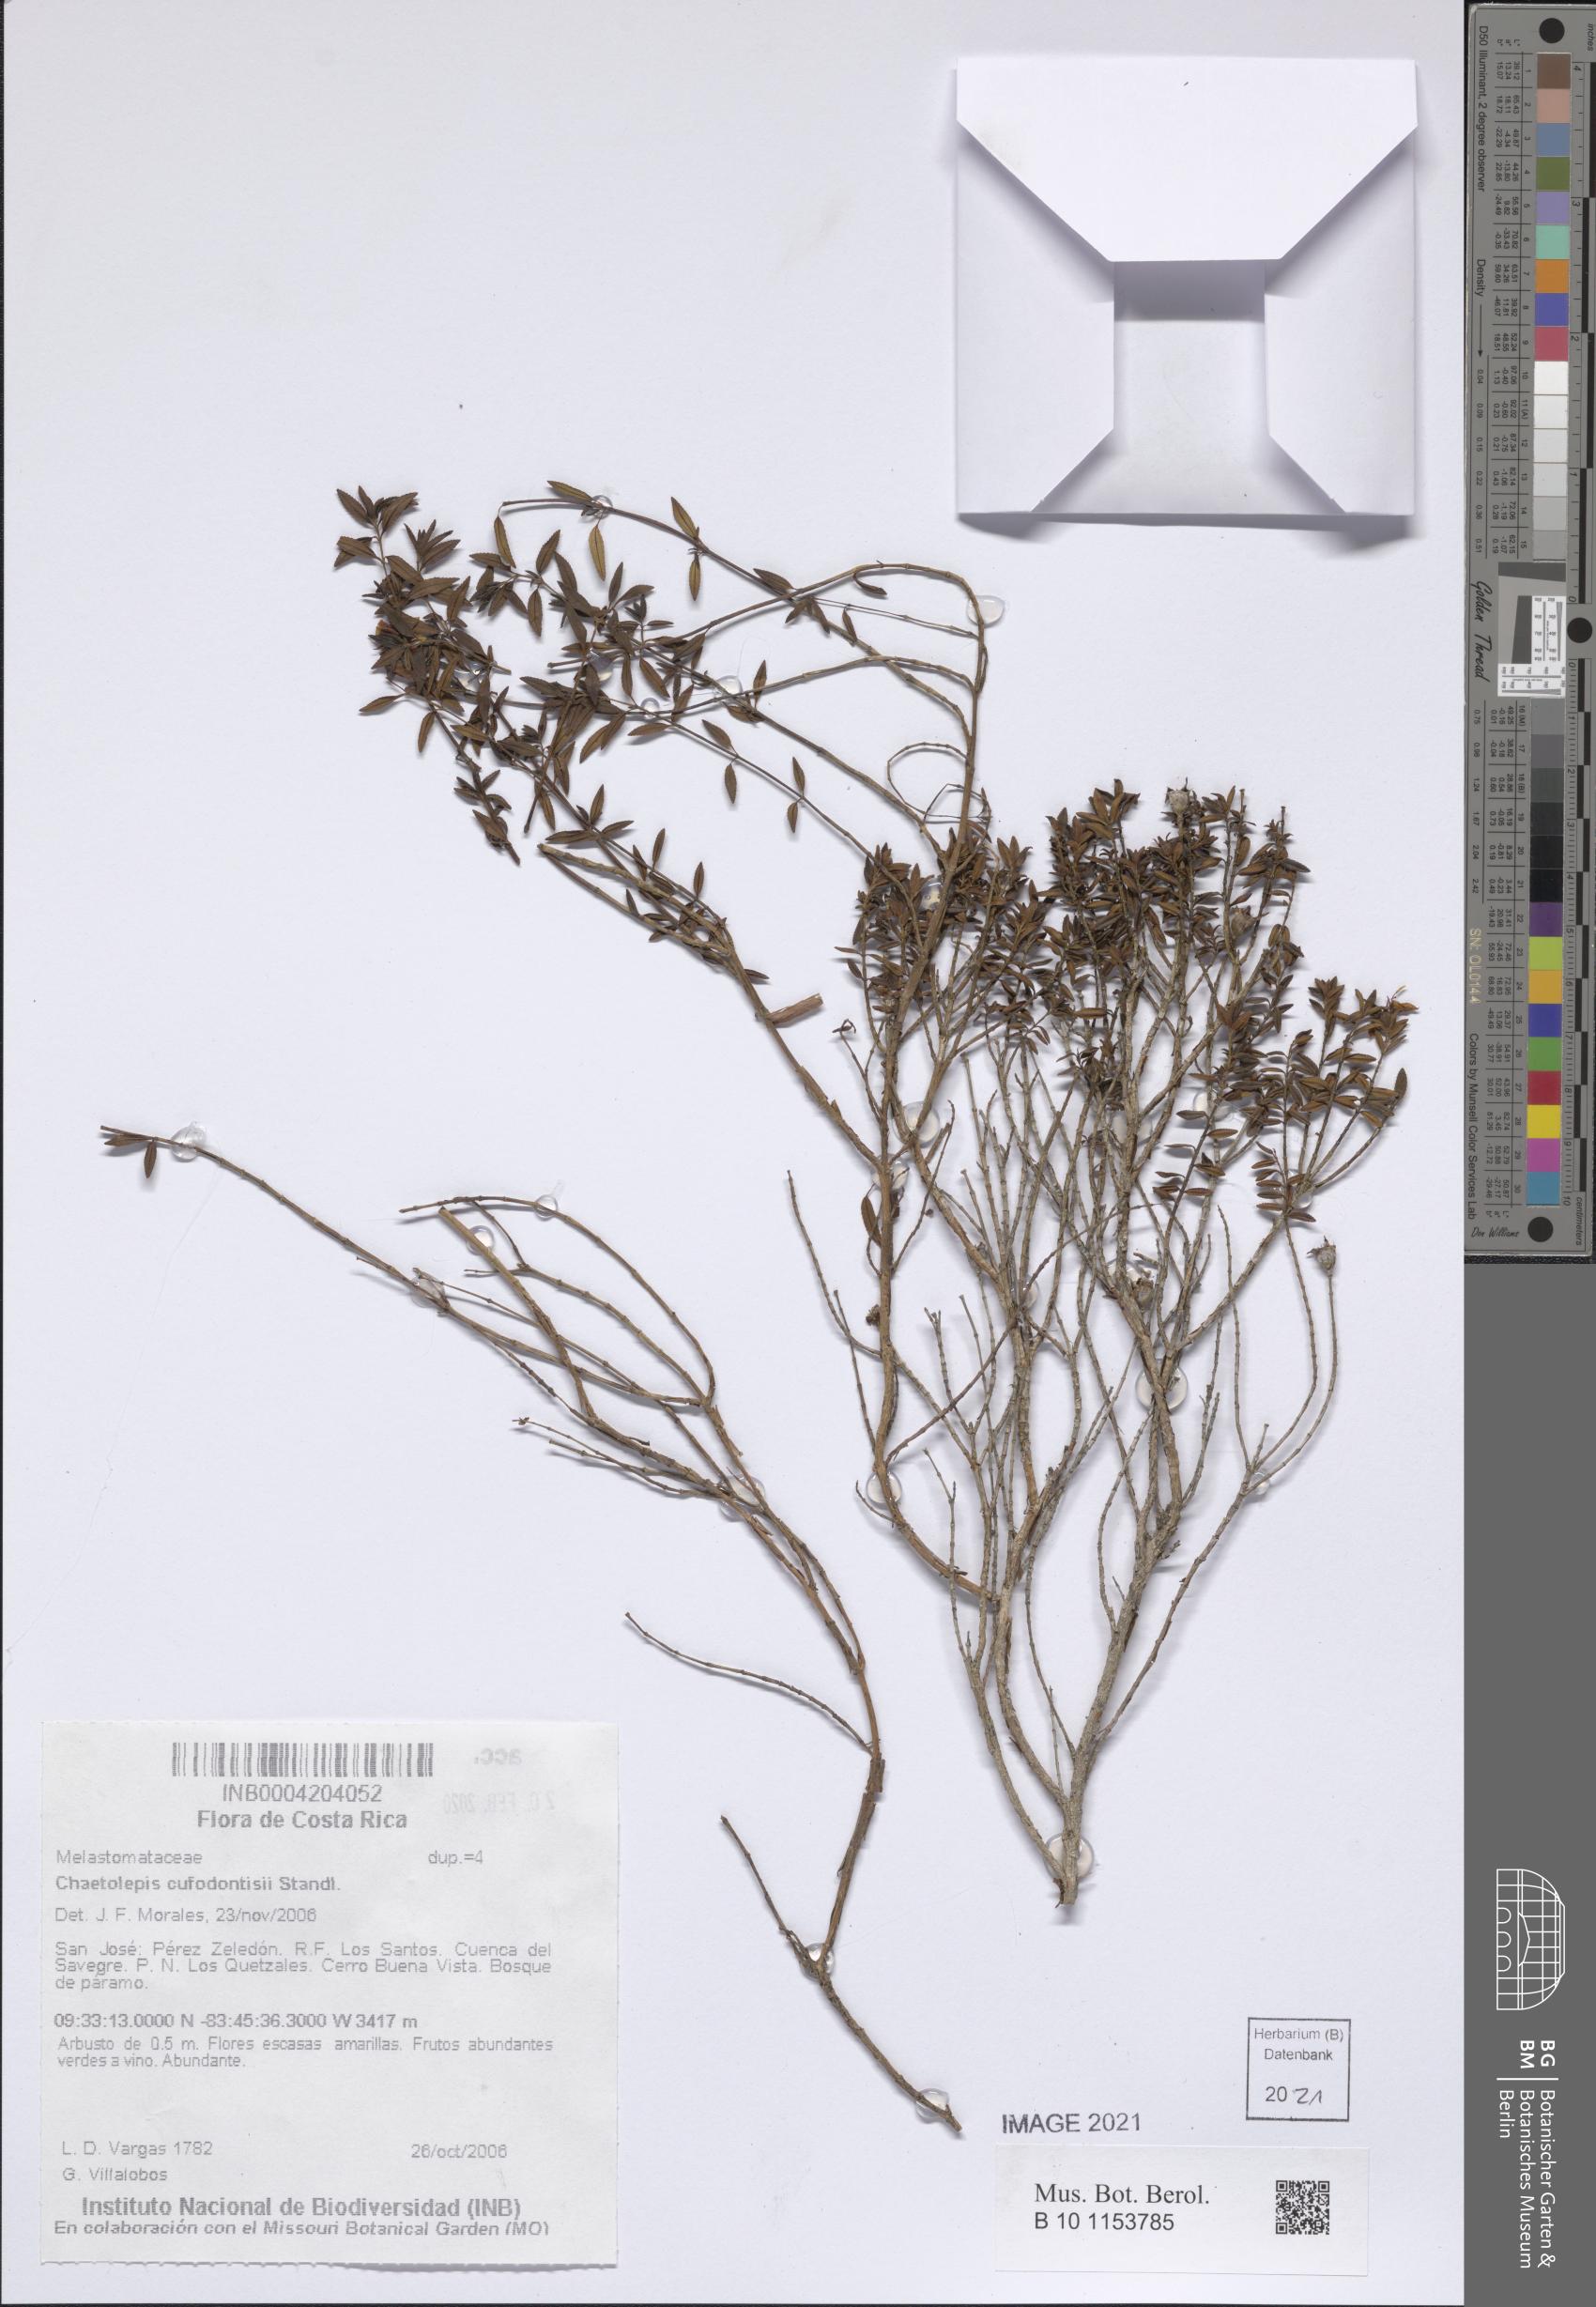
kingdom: Plantae
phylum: Tracheophyta
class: Magnoliopsida
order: Myrtales
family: Melastomataceae
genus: Chaetolepis
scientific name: Chaetolepis cufodontisii
